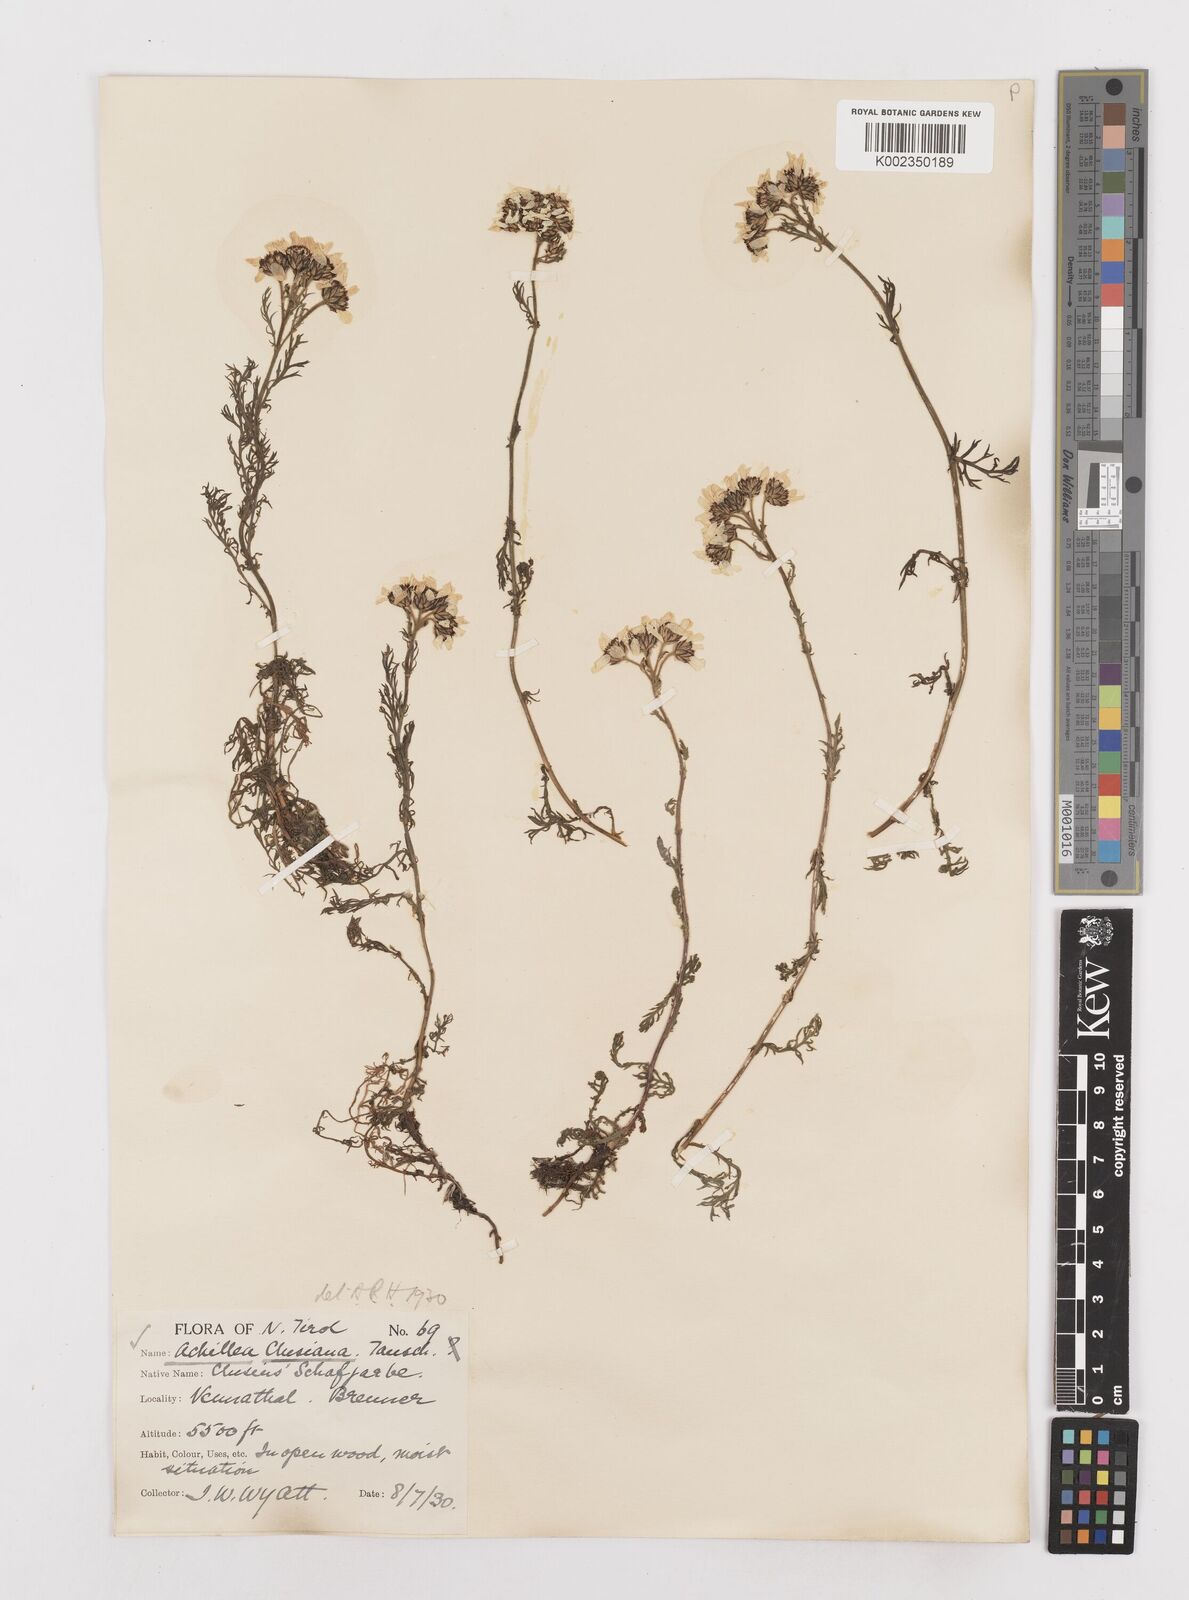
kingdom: Plantae
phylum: Tracheophyta
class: Magnoliopsida
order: Asterales
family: Asteraceae
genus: Achillea
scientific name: Achillea clusiana
